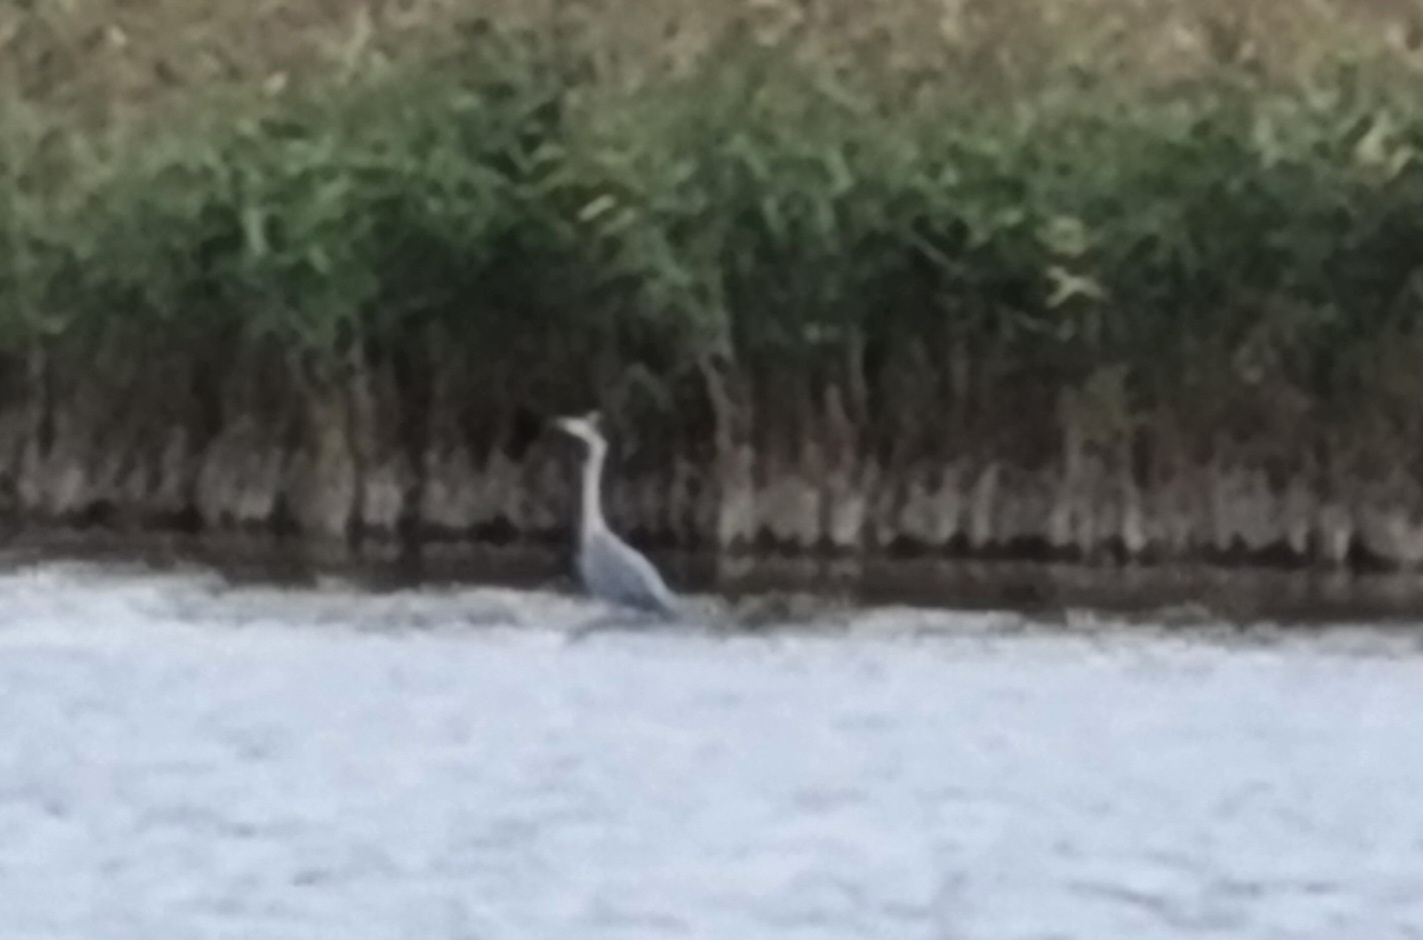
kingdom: Animalia
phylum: Chordata
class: Aves
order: Pelecaniformes
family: Ardeidae
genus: Ardea
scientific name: Ardea cinerea
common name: Fiskehejre
